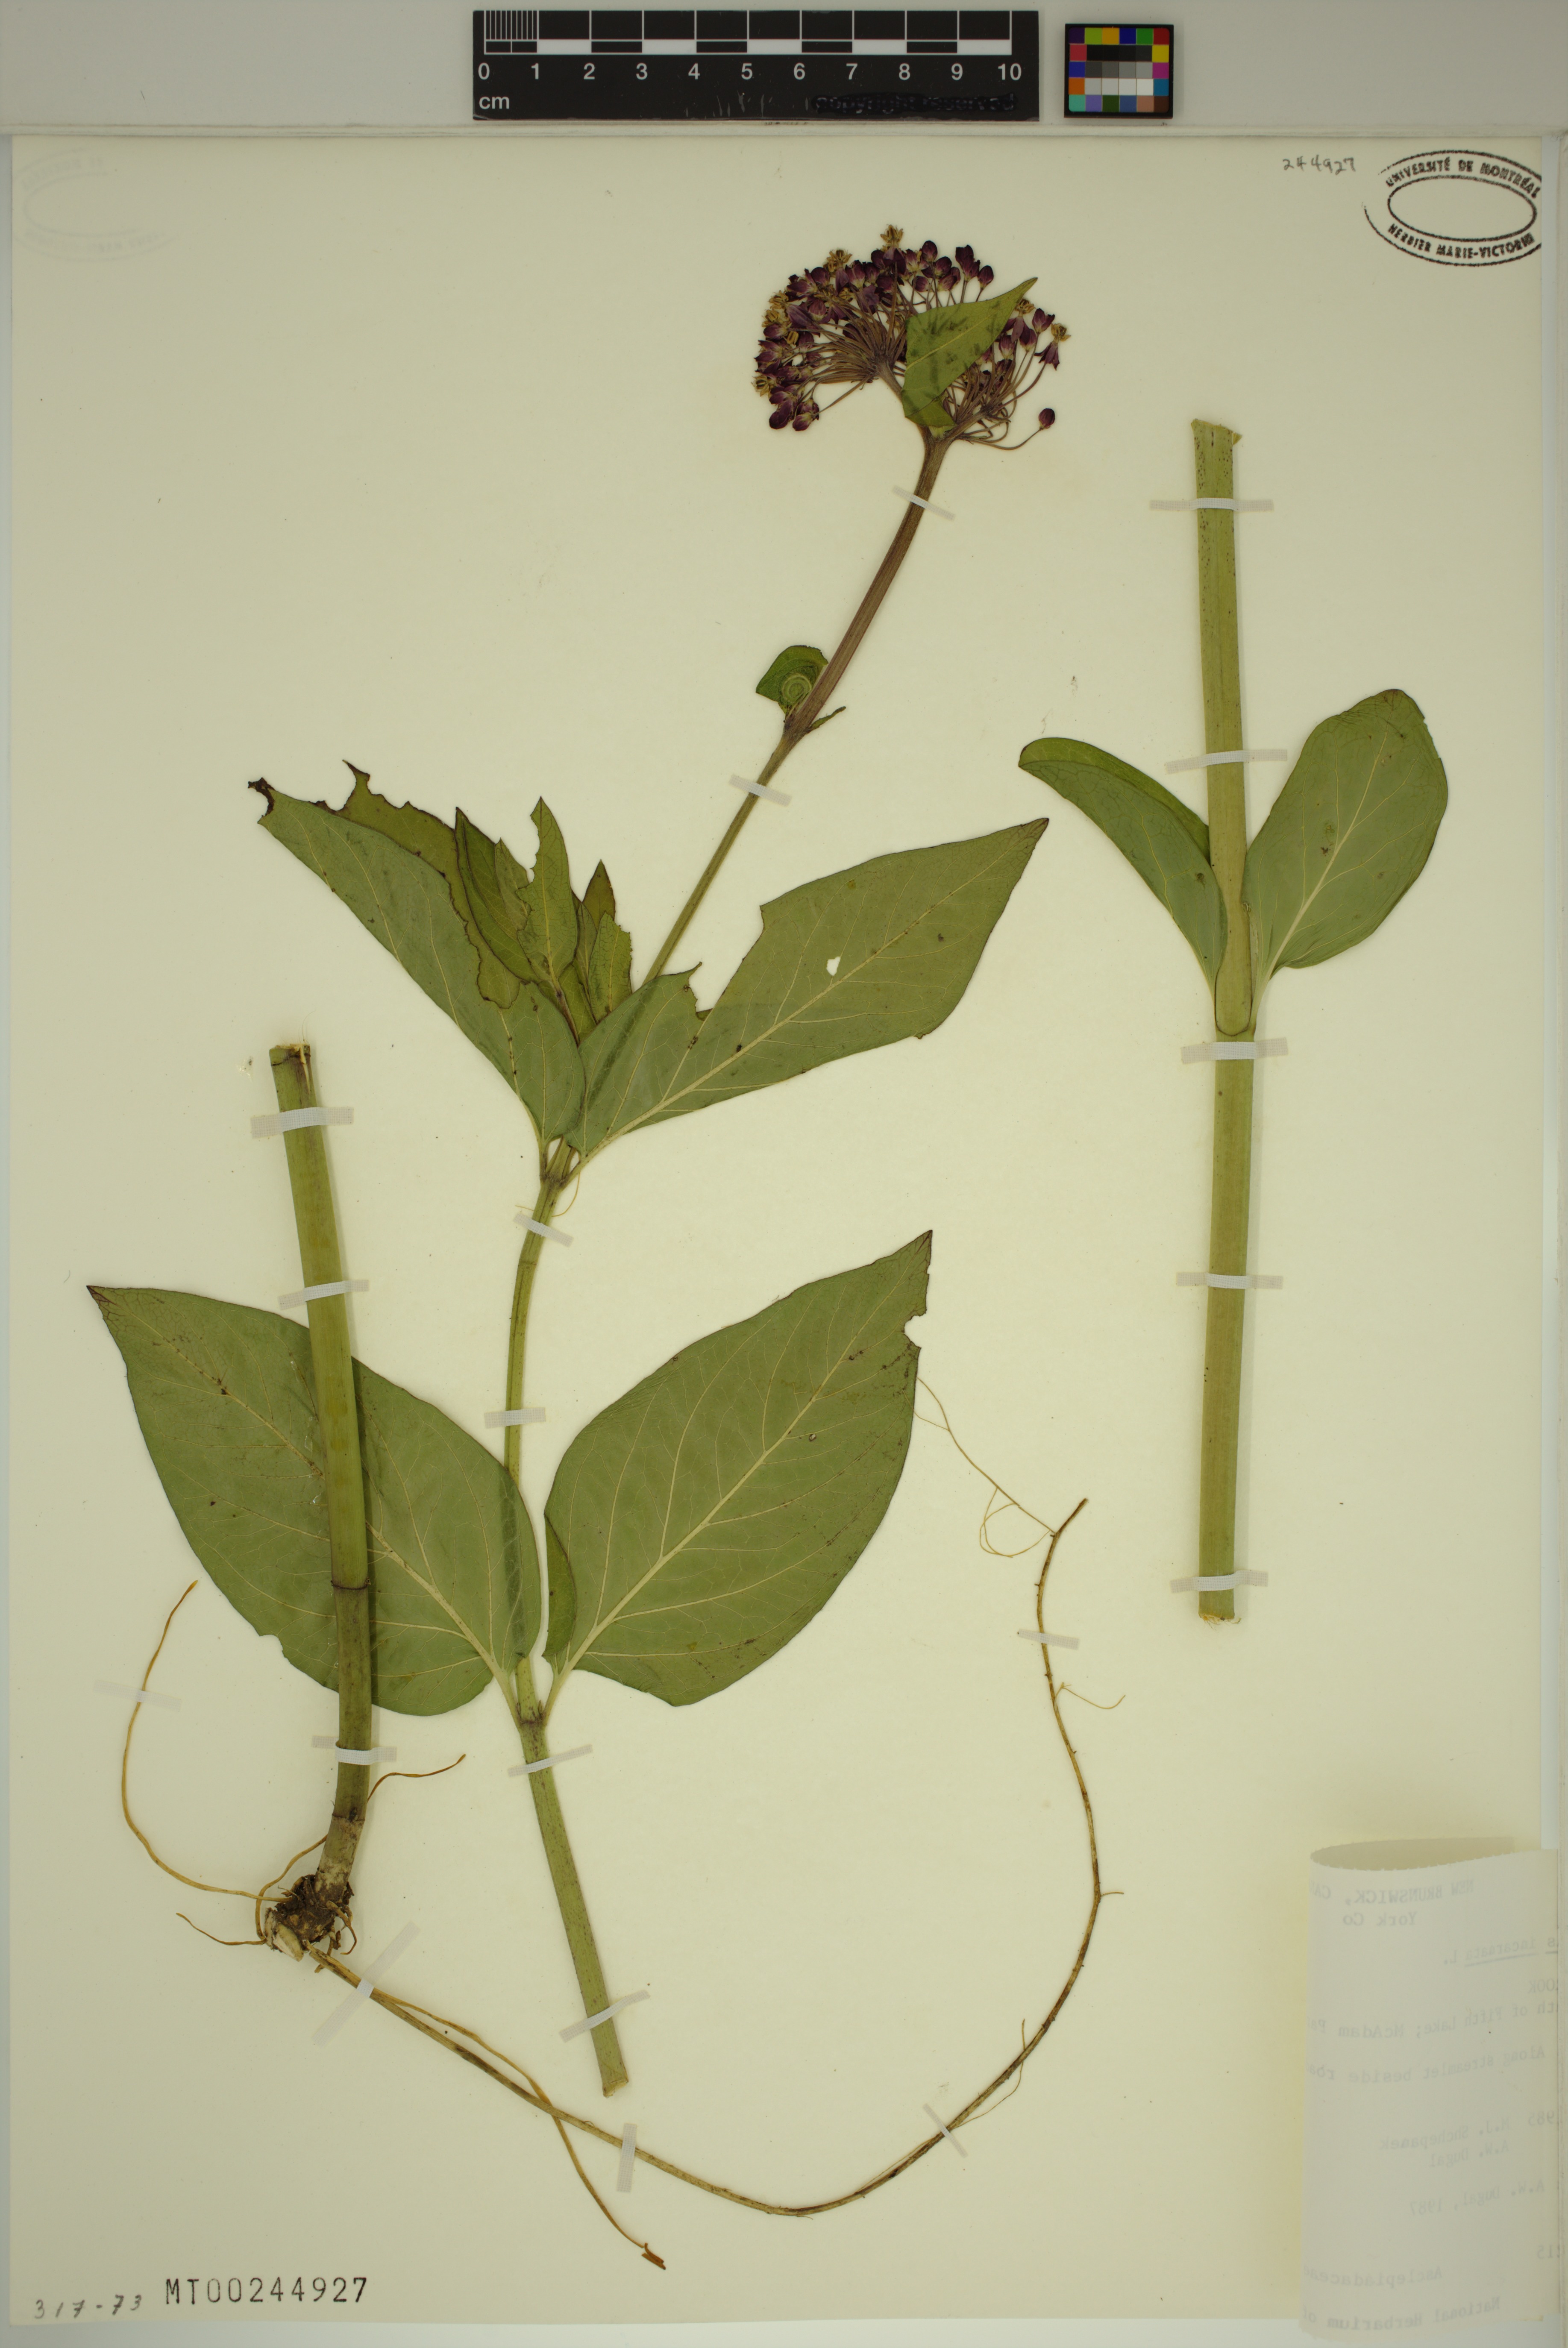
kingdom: Plantae
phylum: Tracheophyta
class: Magnoliopsida
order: Gentianales
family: Apocynaceae
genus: Asclepias
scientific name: Asclepias incarnata
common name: Swamp milkweed
